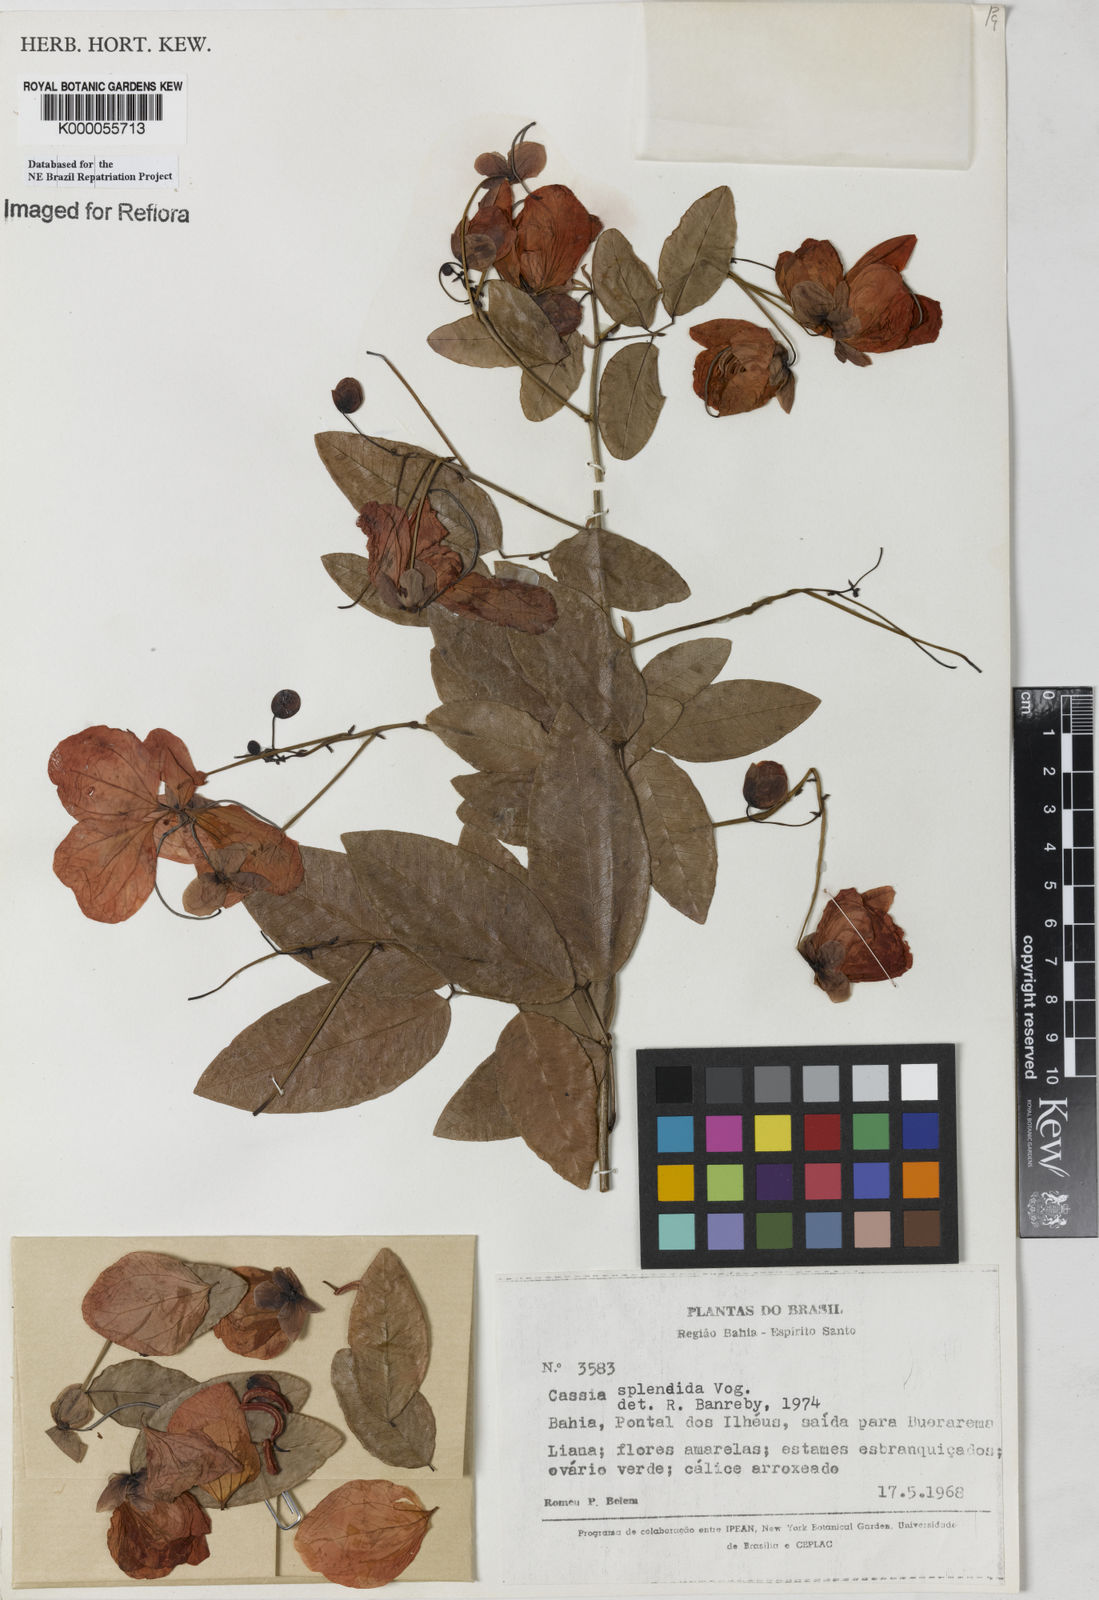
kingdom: Plantae
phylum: Tracheophyta
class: Magnoliopsida
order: Fabales
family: Fabaceae
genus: Senna
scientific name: Senna splendida
